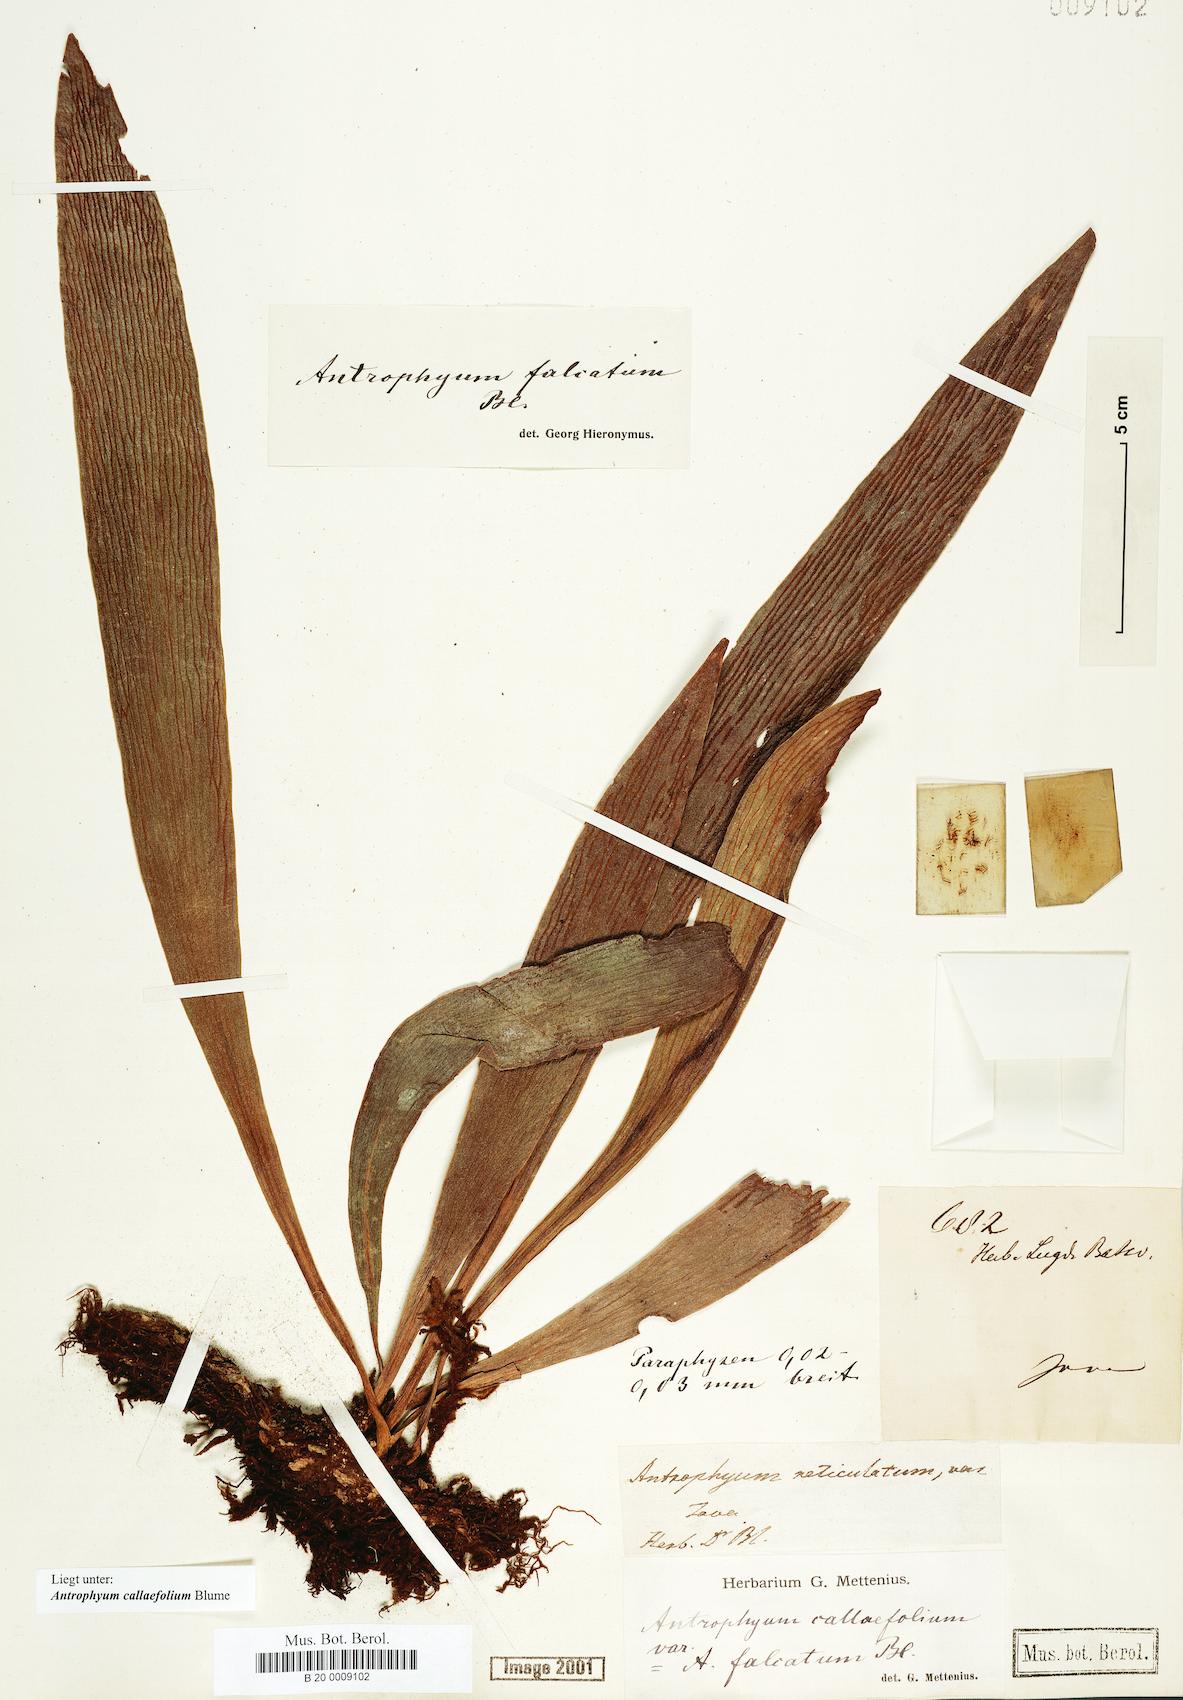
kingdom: Plantae
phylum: Tracheophyta
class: Polypodiopsida
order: Polypodiales
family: Pteridaceae
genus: Antrophyum
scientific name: Antrophyum callifolium
